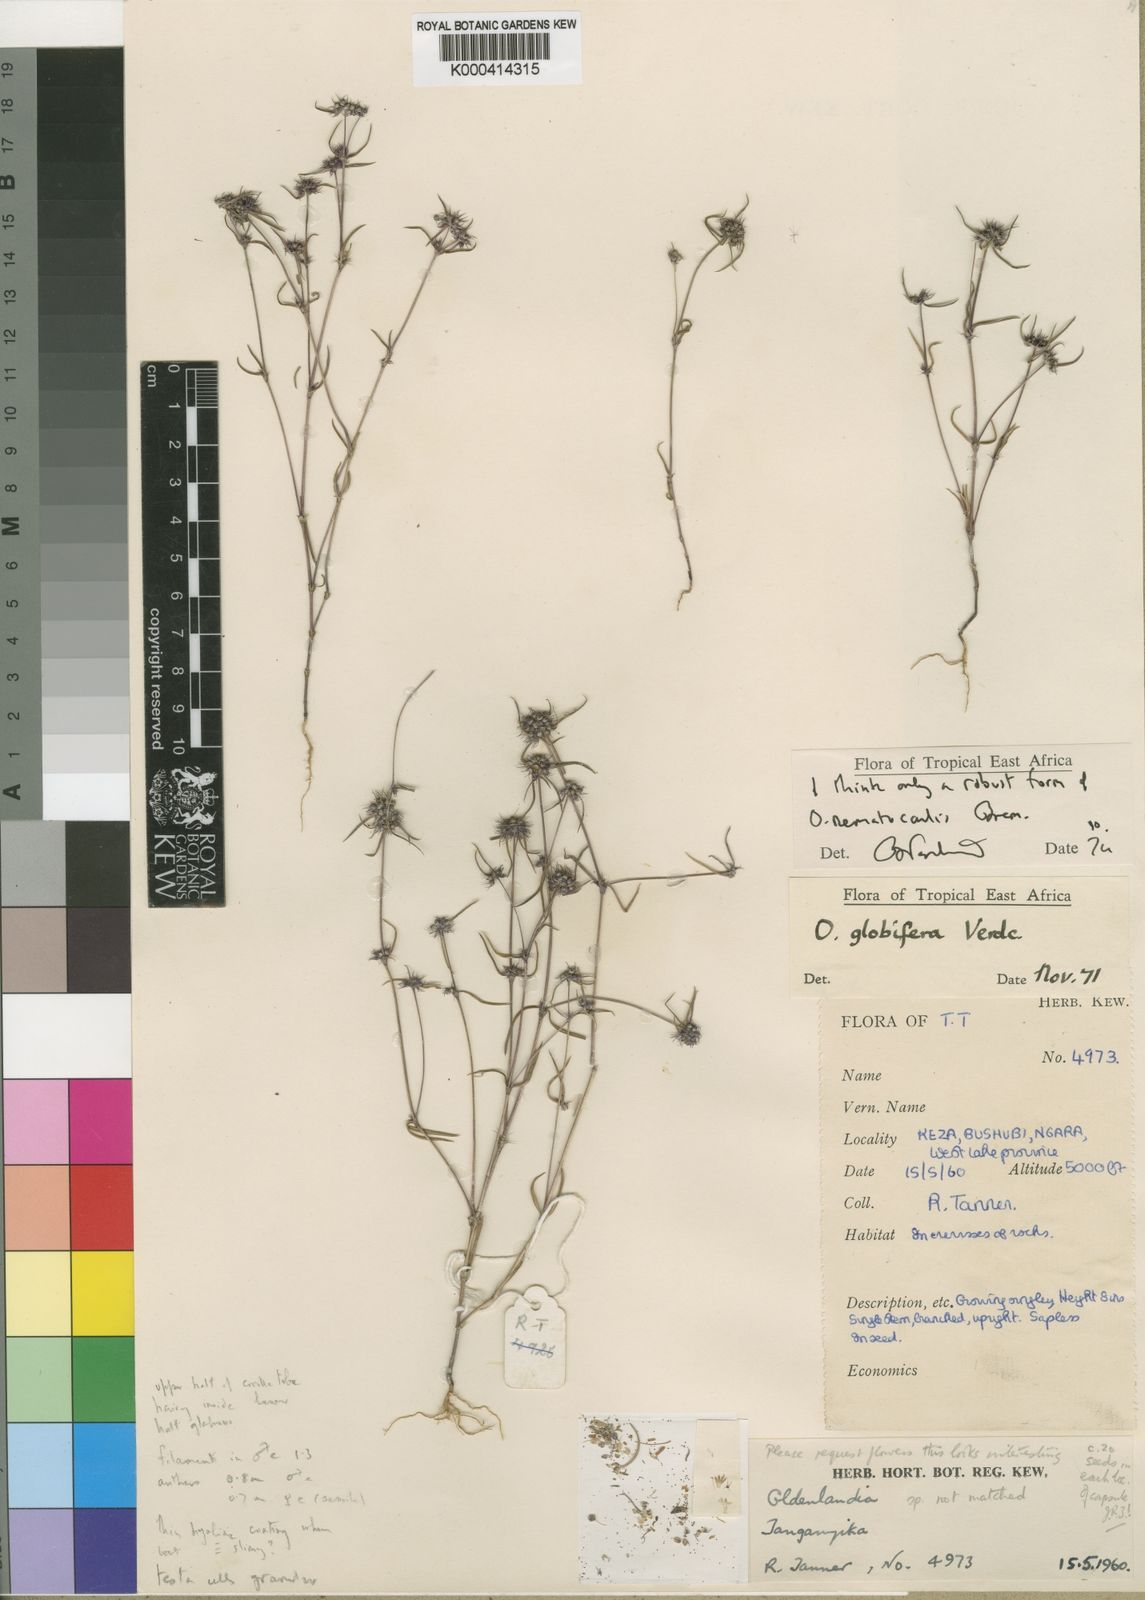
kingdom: Plantae
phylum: Tracheophyta
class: Magnoliopsida
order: Gentianales
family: Rubiaceae
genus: Oldenlandia
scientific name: Oldenlandia nematocaulis
